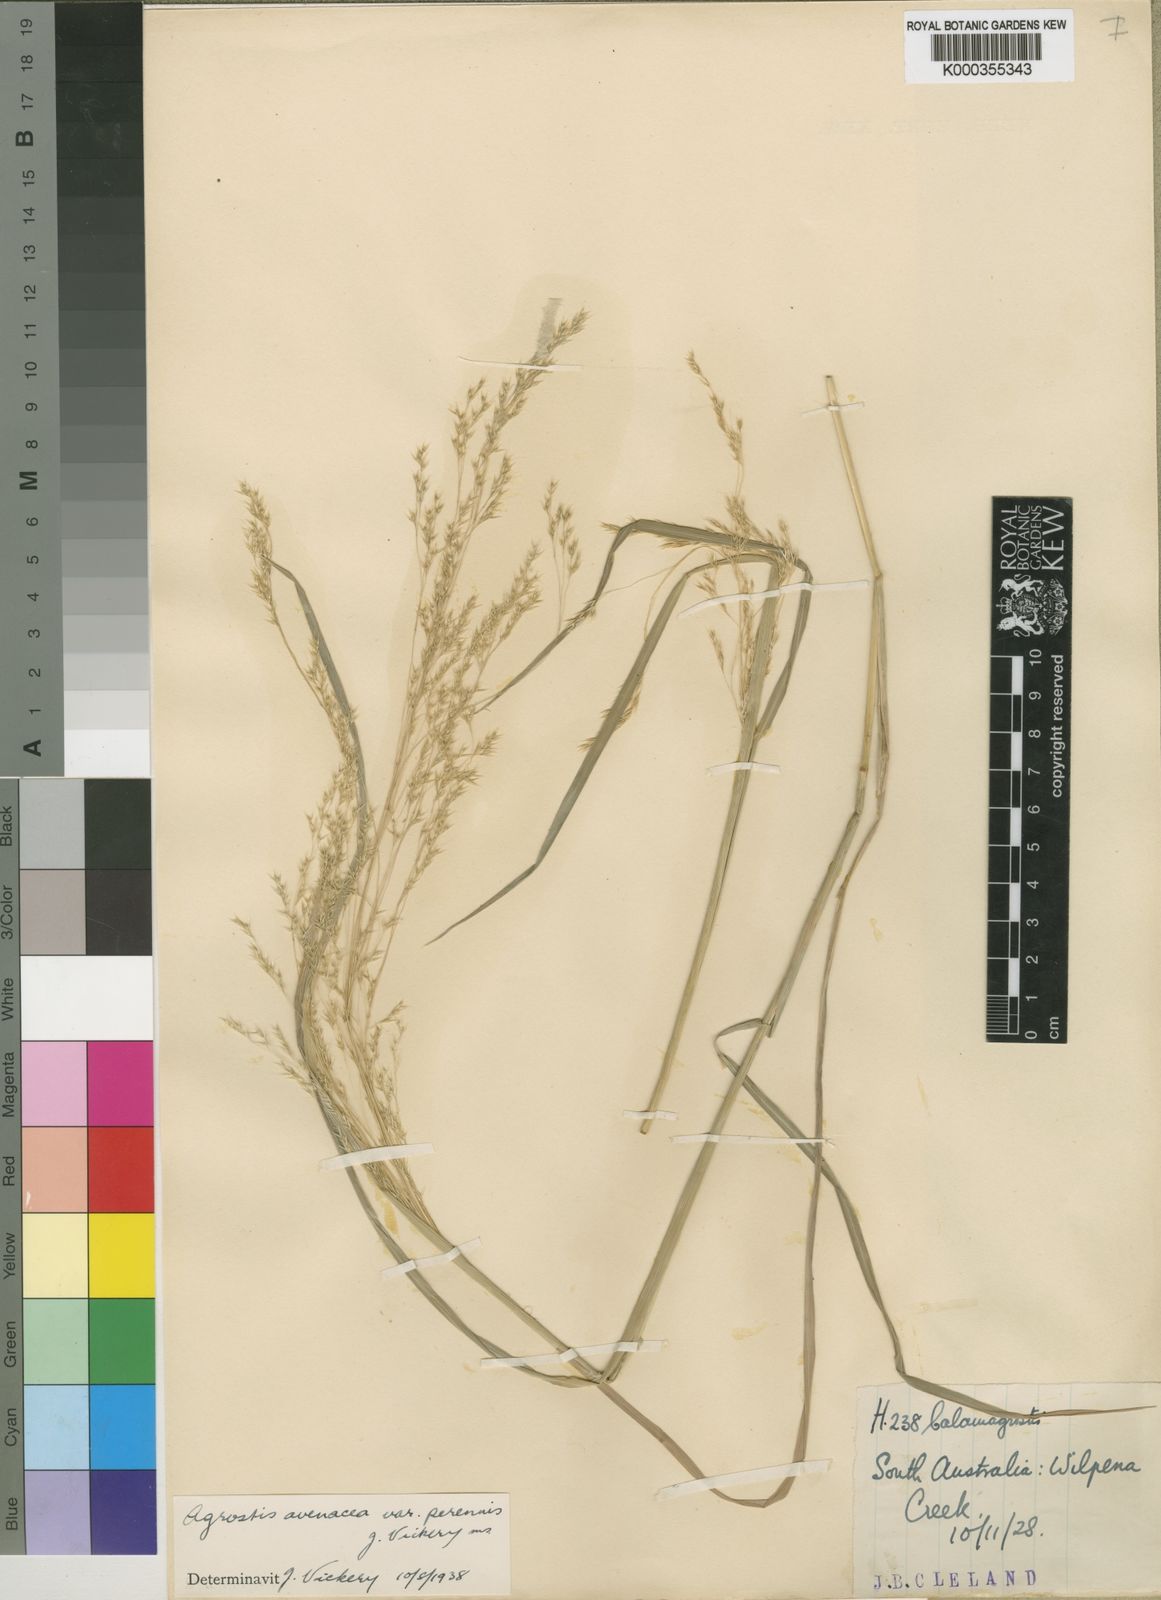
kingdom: Plantae
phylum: Tracheophyta
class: Liliopsida
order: Poales
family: Poaceae
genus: Lachnagrostis
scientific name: Lachnagrostis perennis
